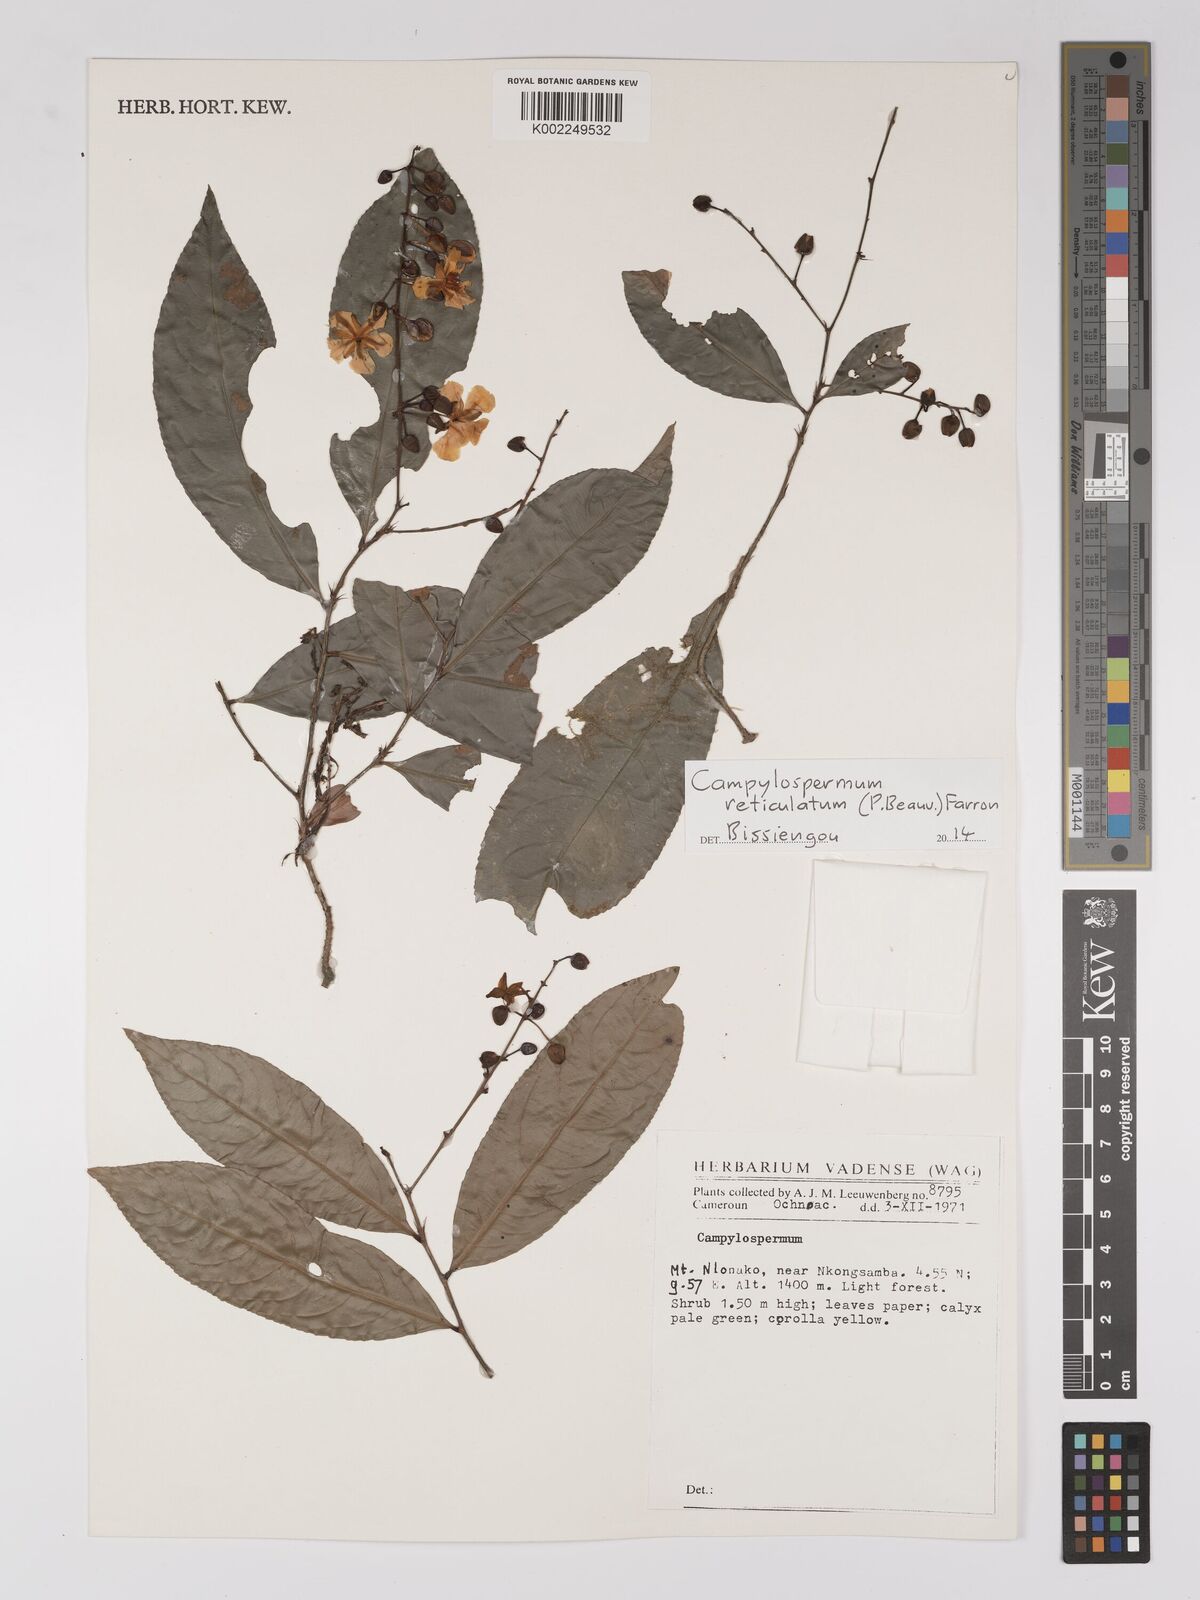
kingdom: Plantae
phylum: Tracheophyta
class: Magnoliopsida
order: Malpighiales
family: Ochnaceae
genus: Campylospermum
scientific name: Campylospermum reticulatum
